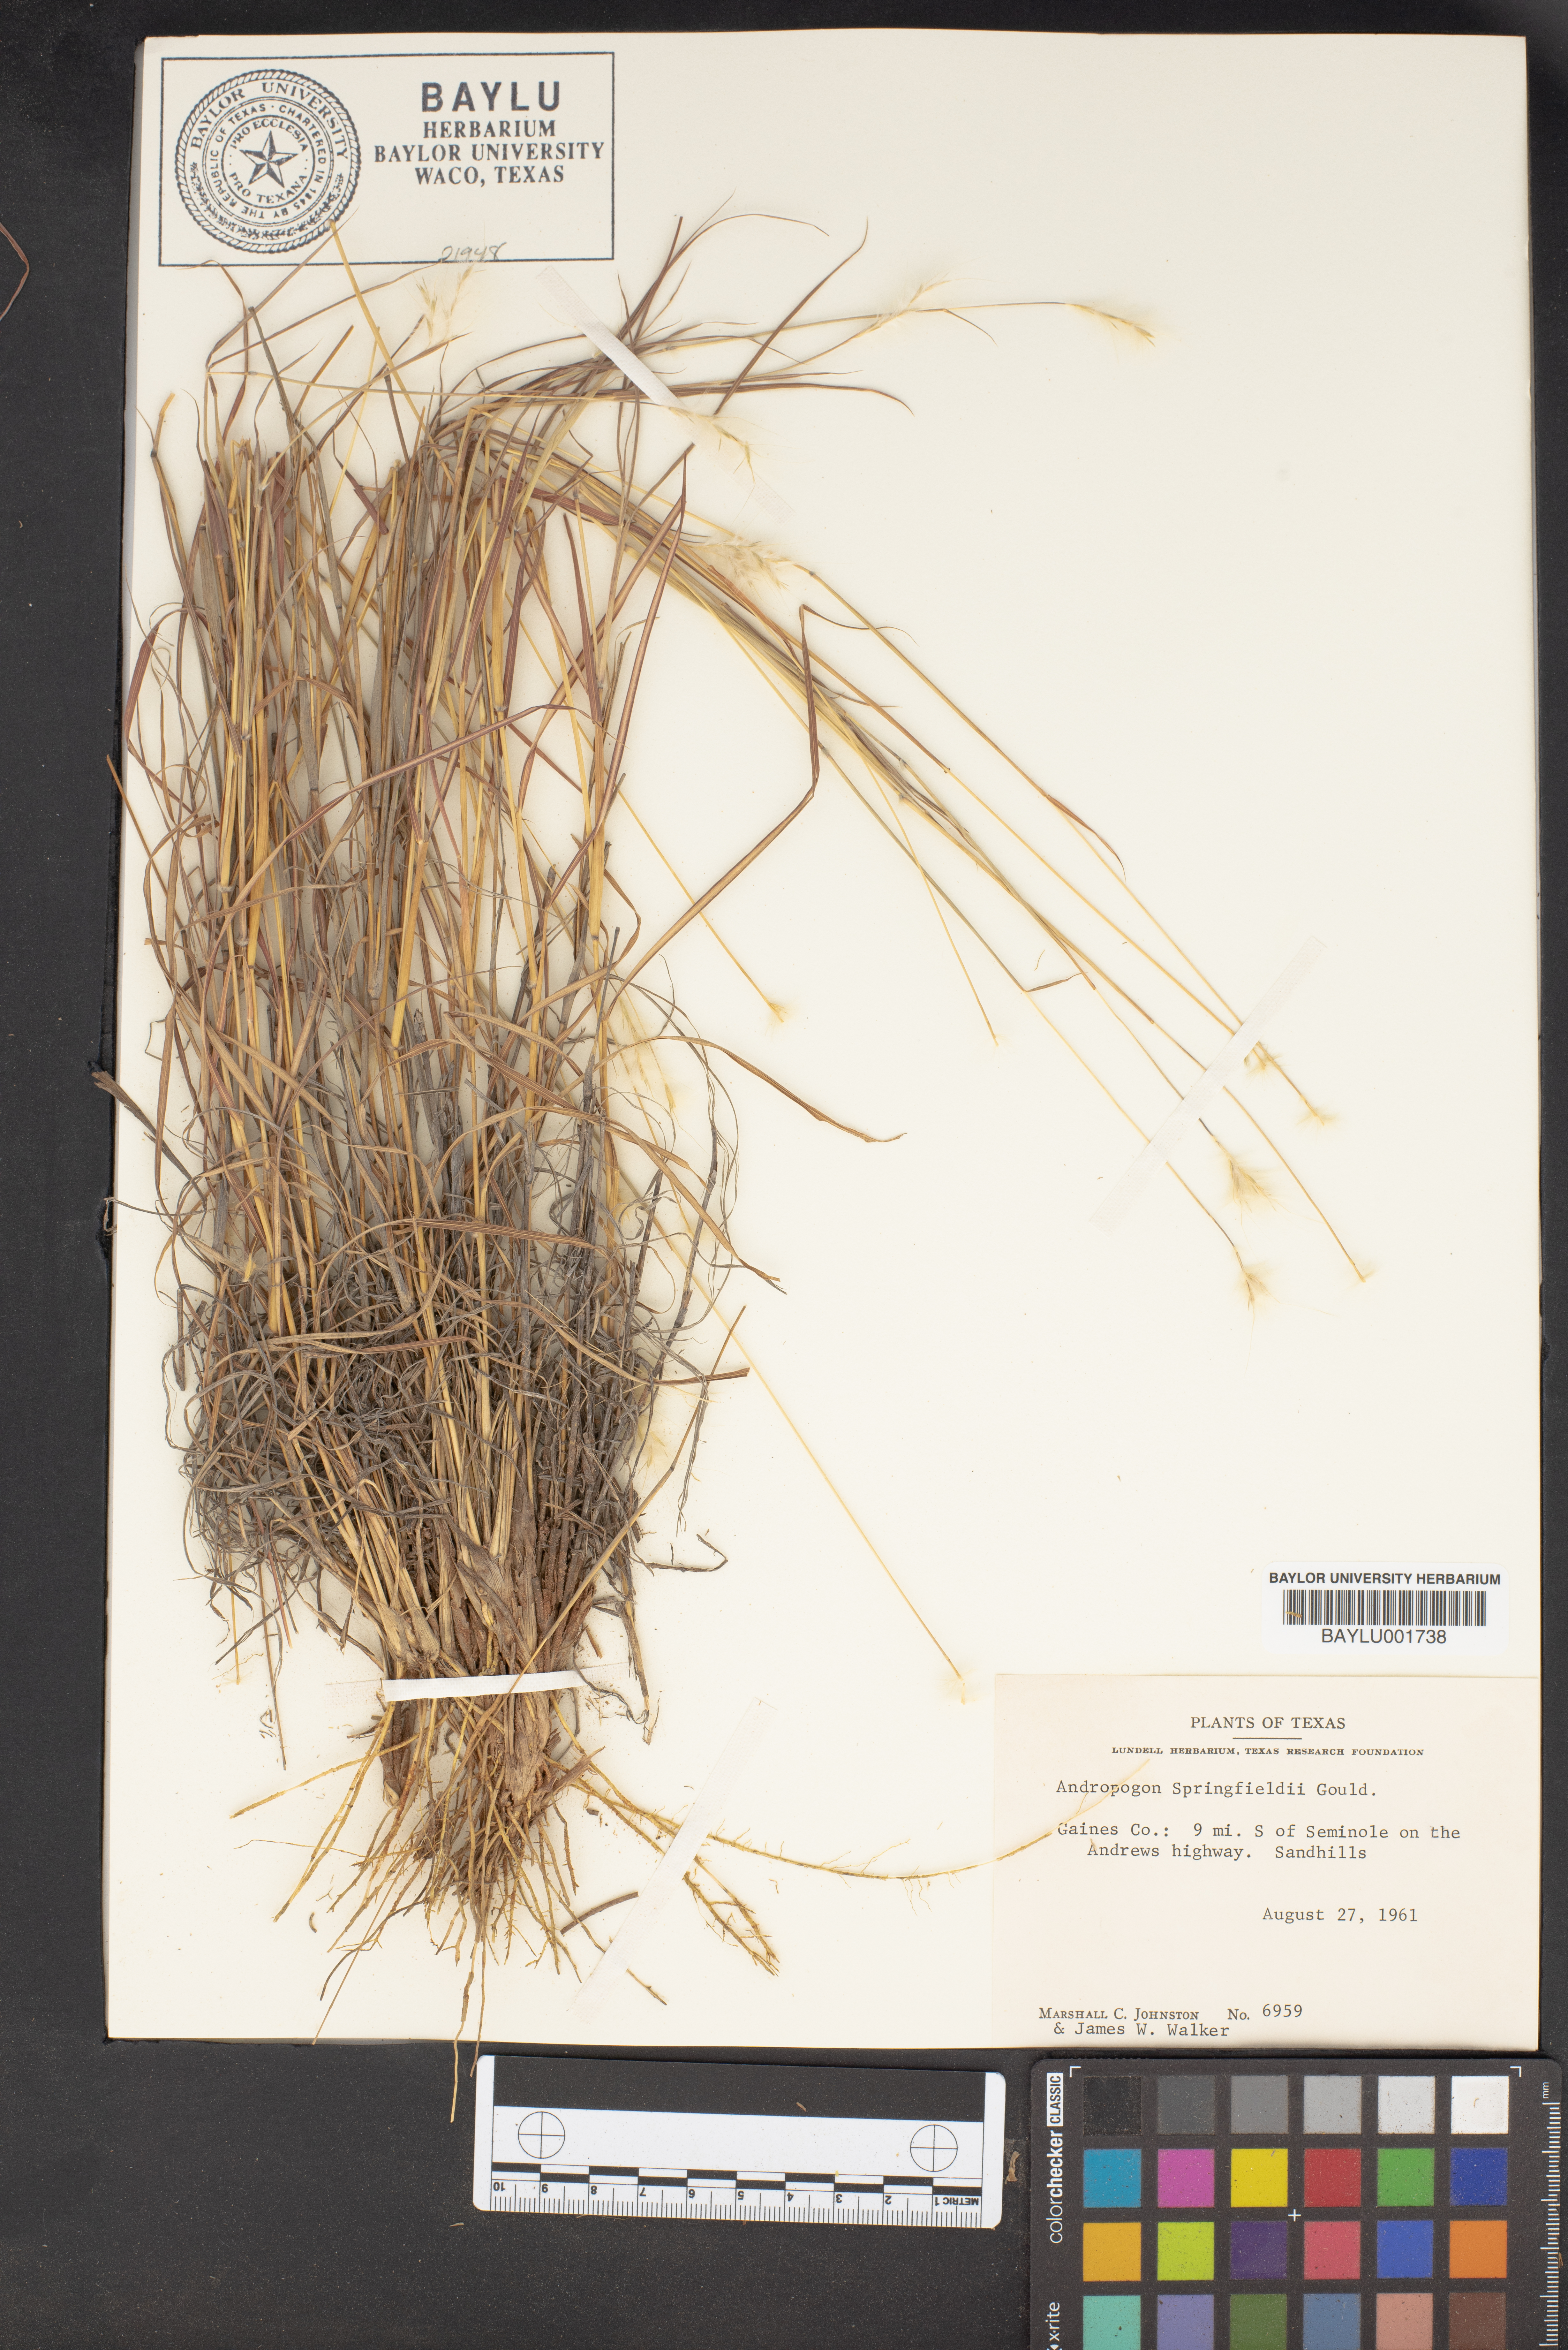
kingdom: Plantae
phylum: Tracheophyta
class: Liliopsida
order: Poales
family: Poaceae
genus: Bothriochloa
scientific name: Bothriochloa springfieldii
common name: Springfield bluestem
